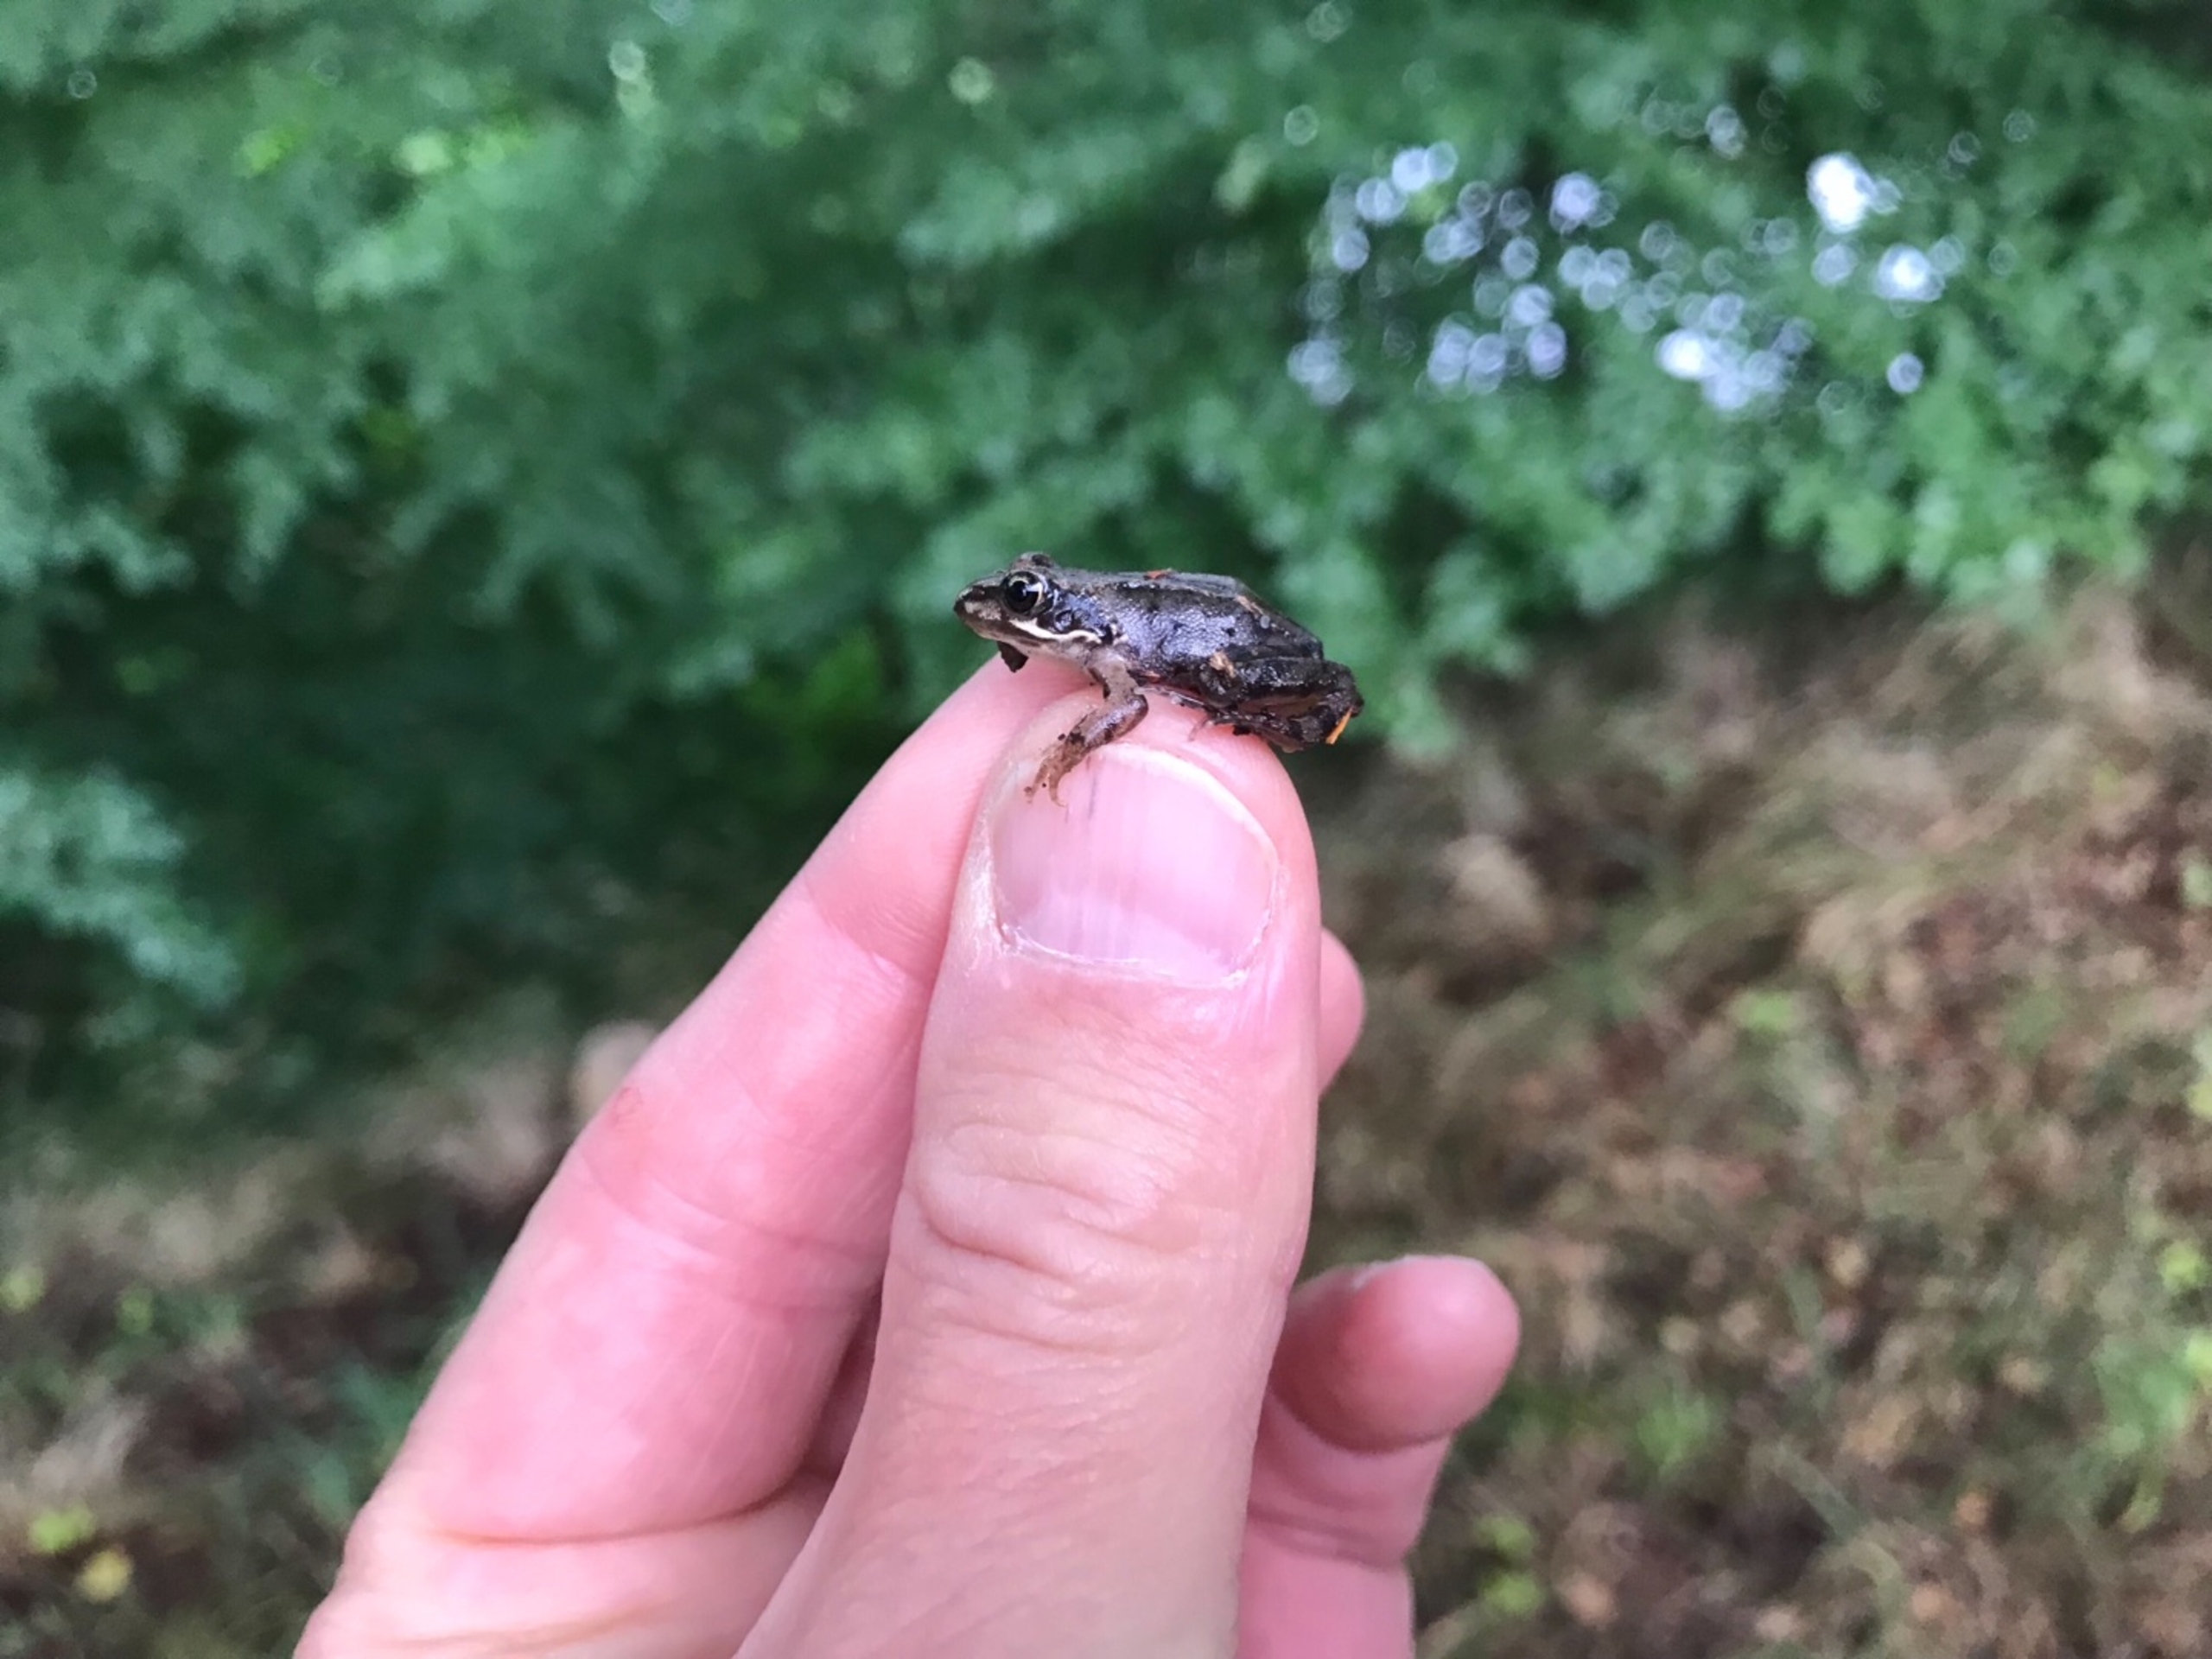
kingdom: Animalia
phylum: Chordata
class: Amphibia
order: Anura
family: Ranidae
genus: Rana
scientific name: Rana temporaria
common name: Butsnudet frø
